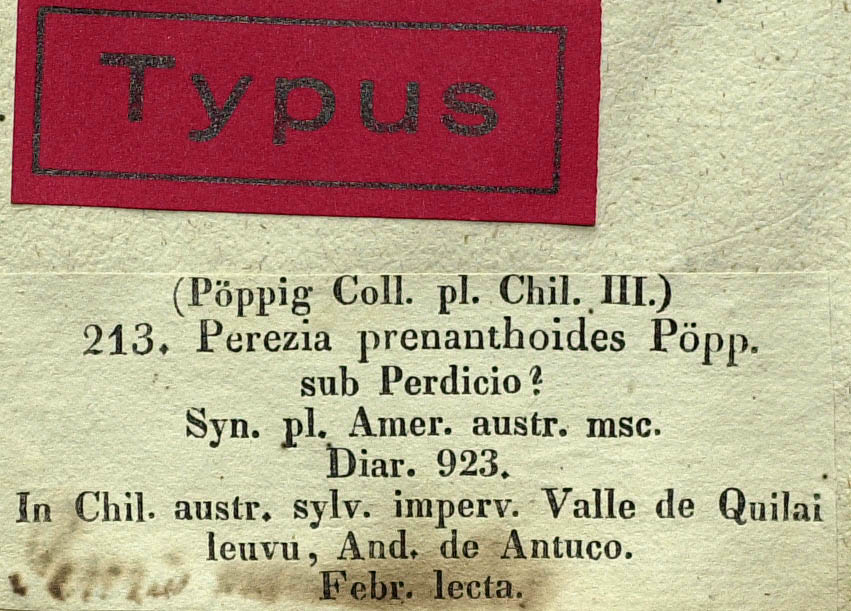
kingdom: Plantae
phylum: Tracheophyta
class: Magnoliopsida
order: Asterales
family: Asteraceae
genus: Perezia
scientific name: Perezia prenanthoides
